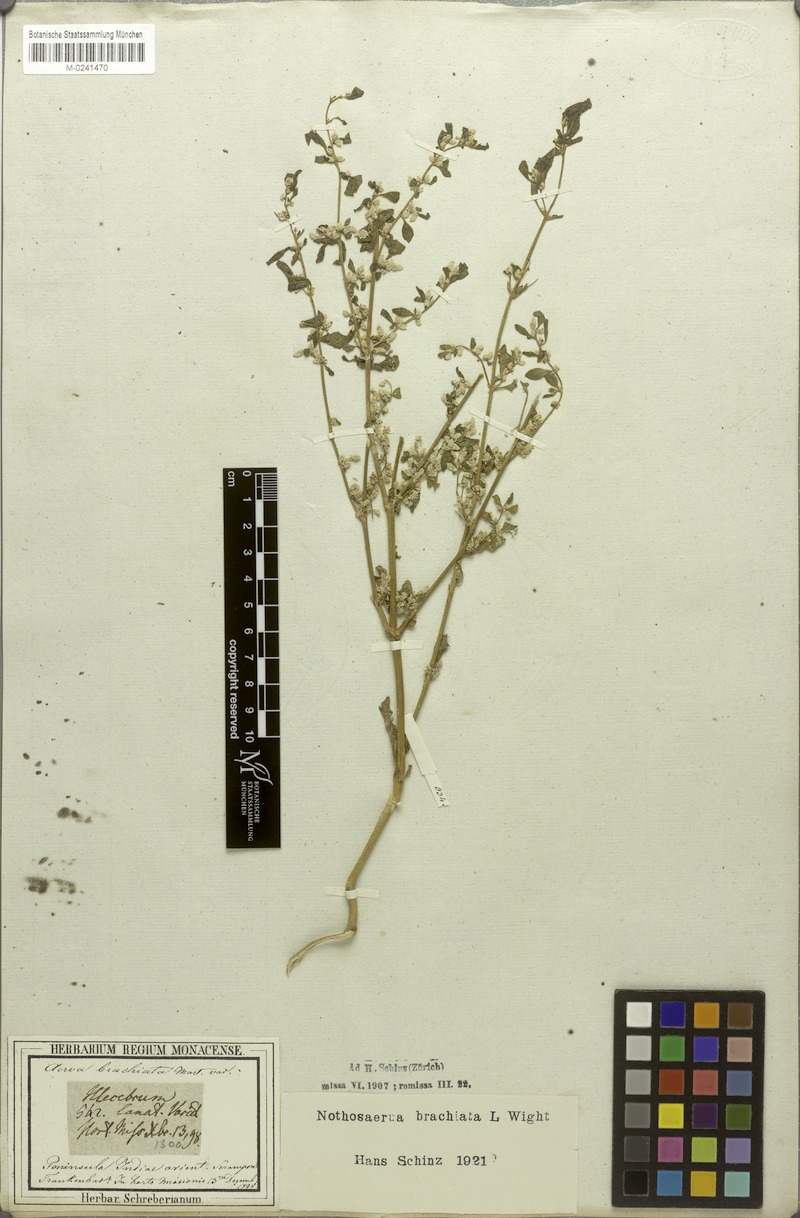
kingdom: Plantae
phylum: Tracheophyta
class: Magnoliopsida
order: Caryophyllales
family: Amaranthaceae
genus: Nothosaerva
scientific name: Nothosaerva brachiata
